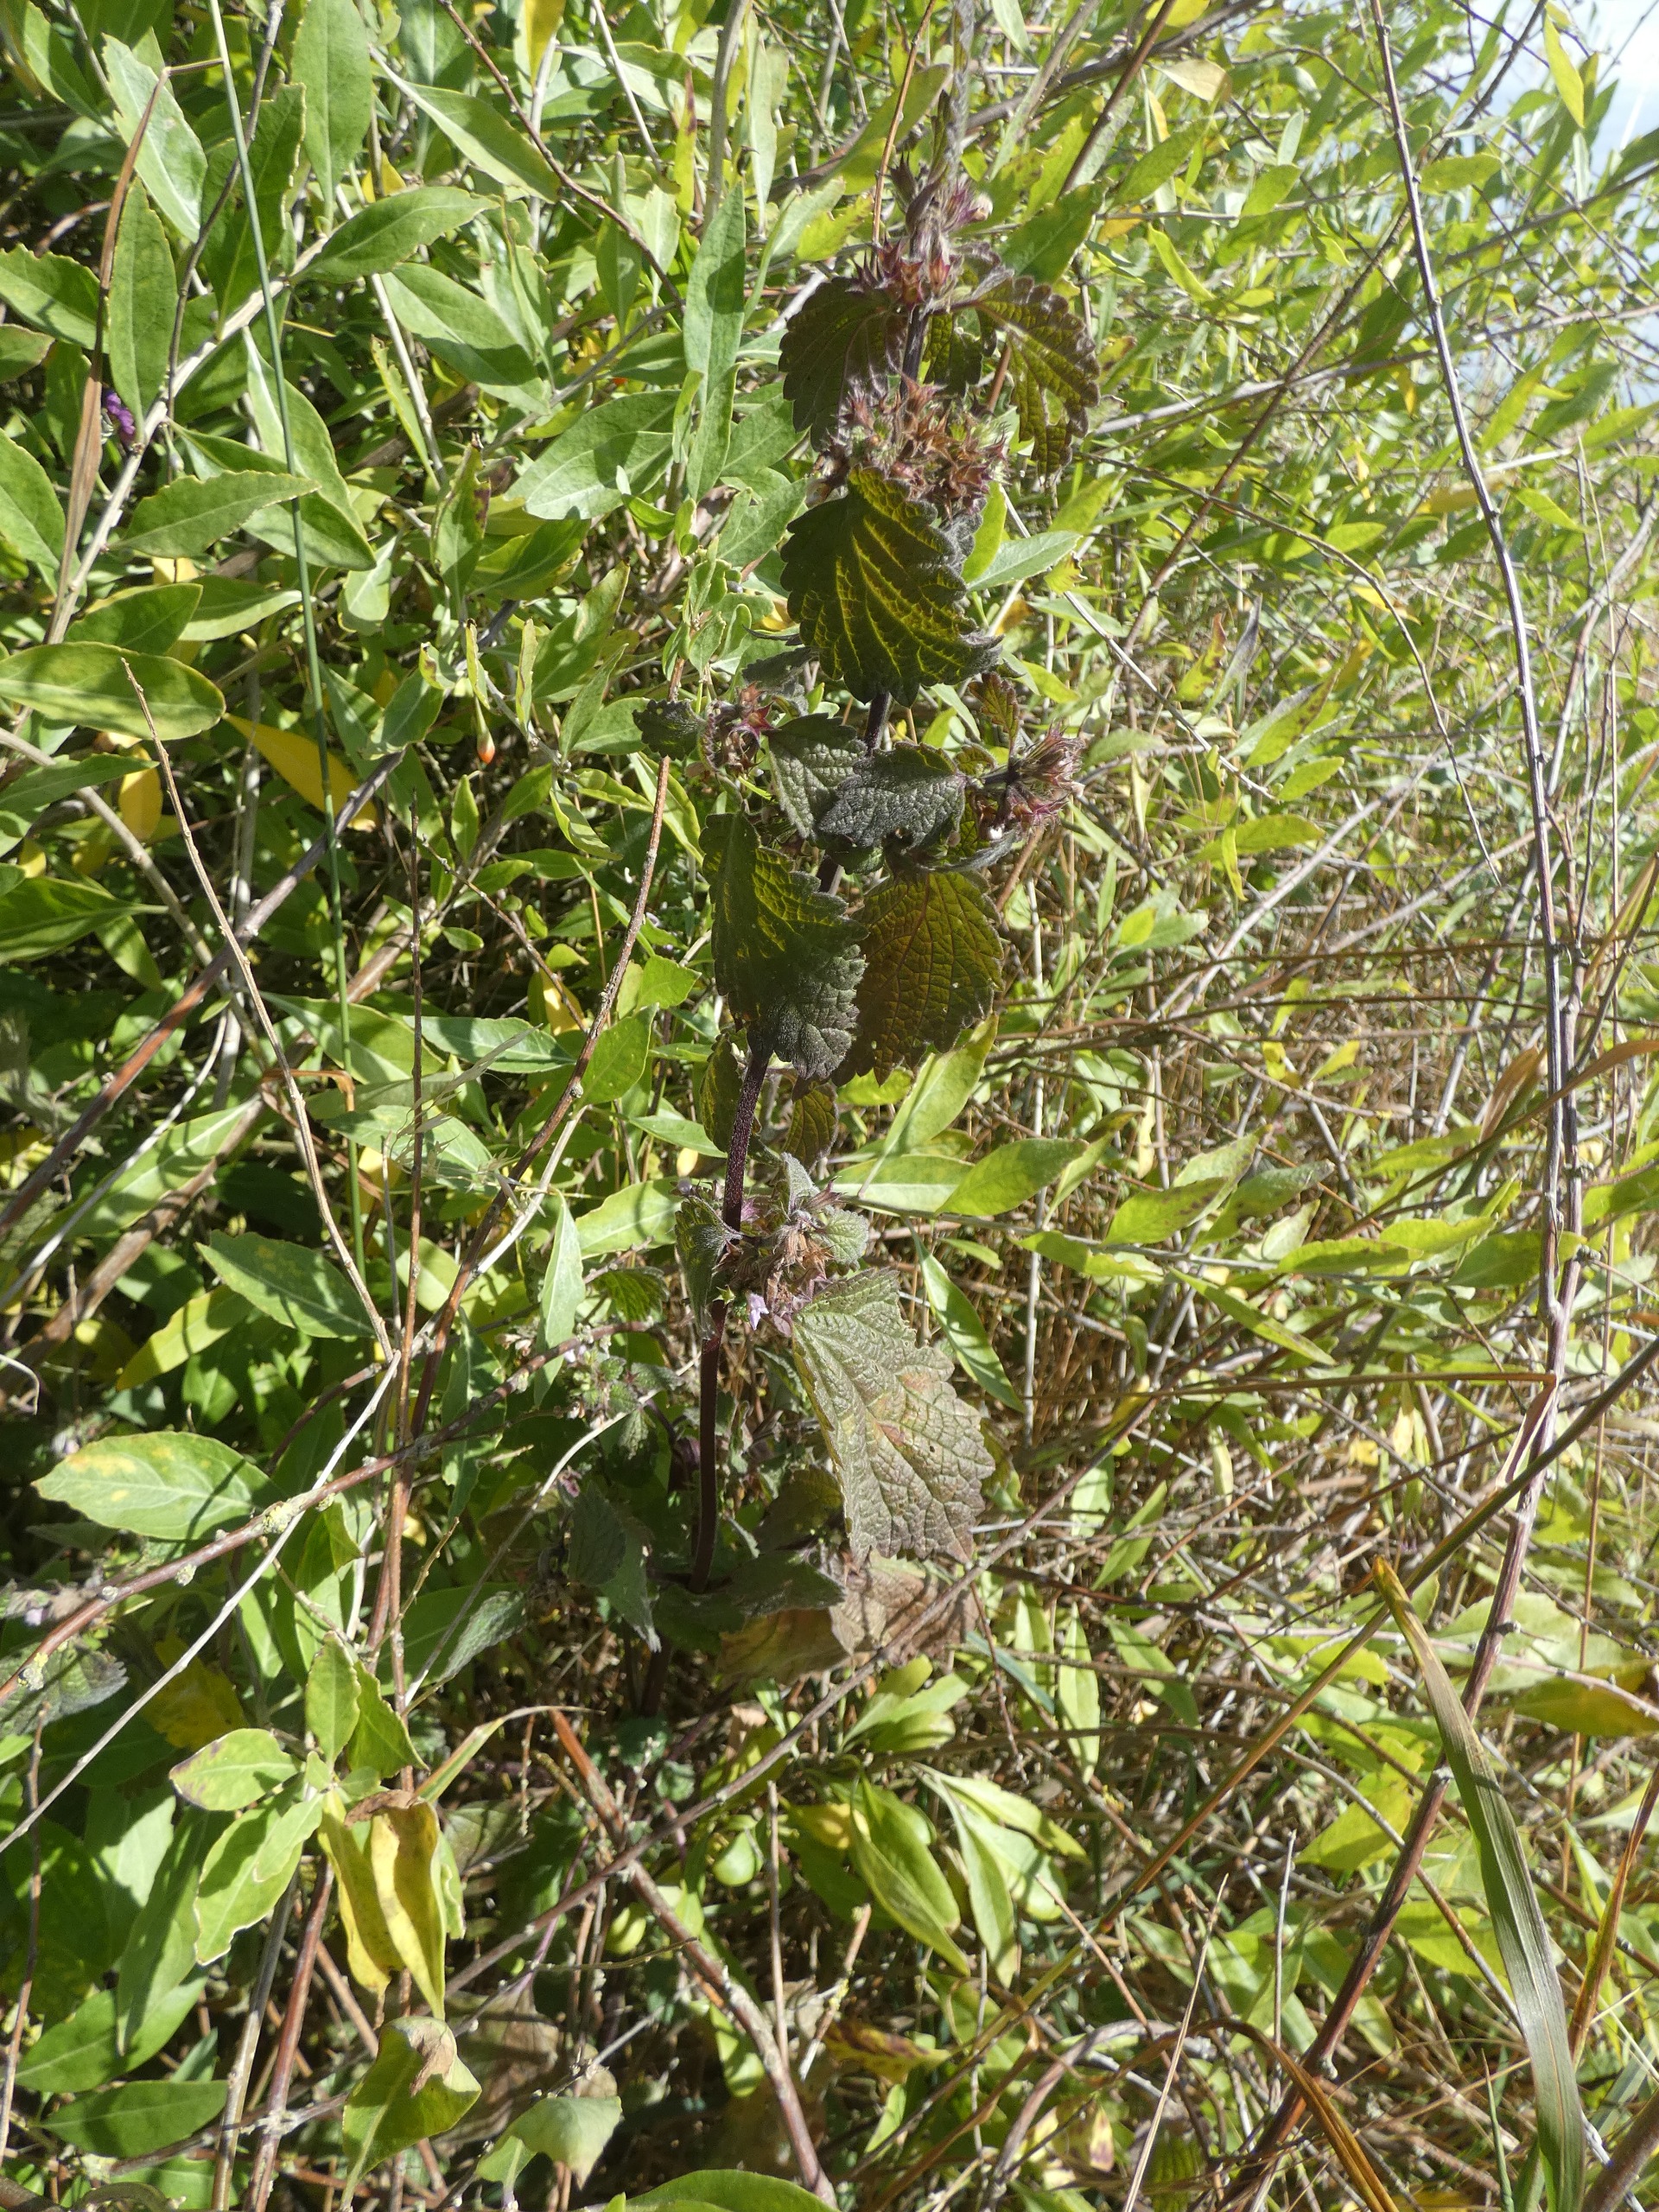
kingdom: Plantae
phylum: Tracheophyta
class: Magnoliopsida
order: Lamiales
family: Lamiaceae
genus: Ballota
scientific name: Ballota nigra
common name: Tandbæger
